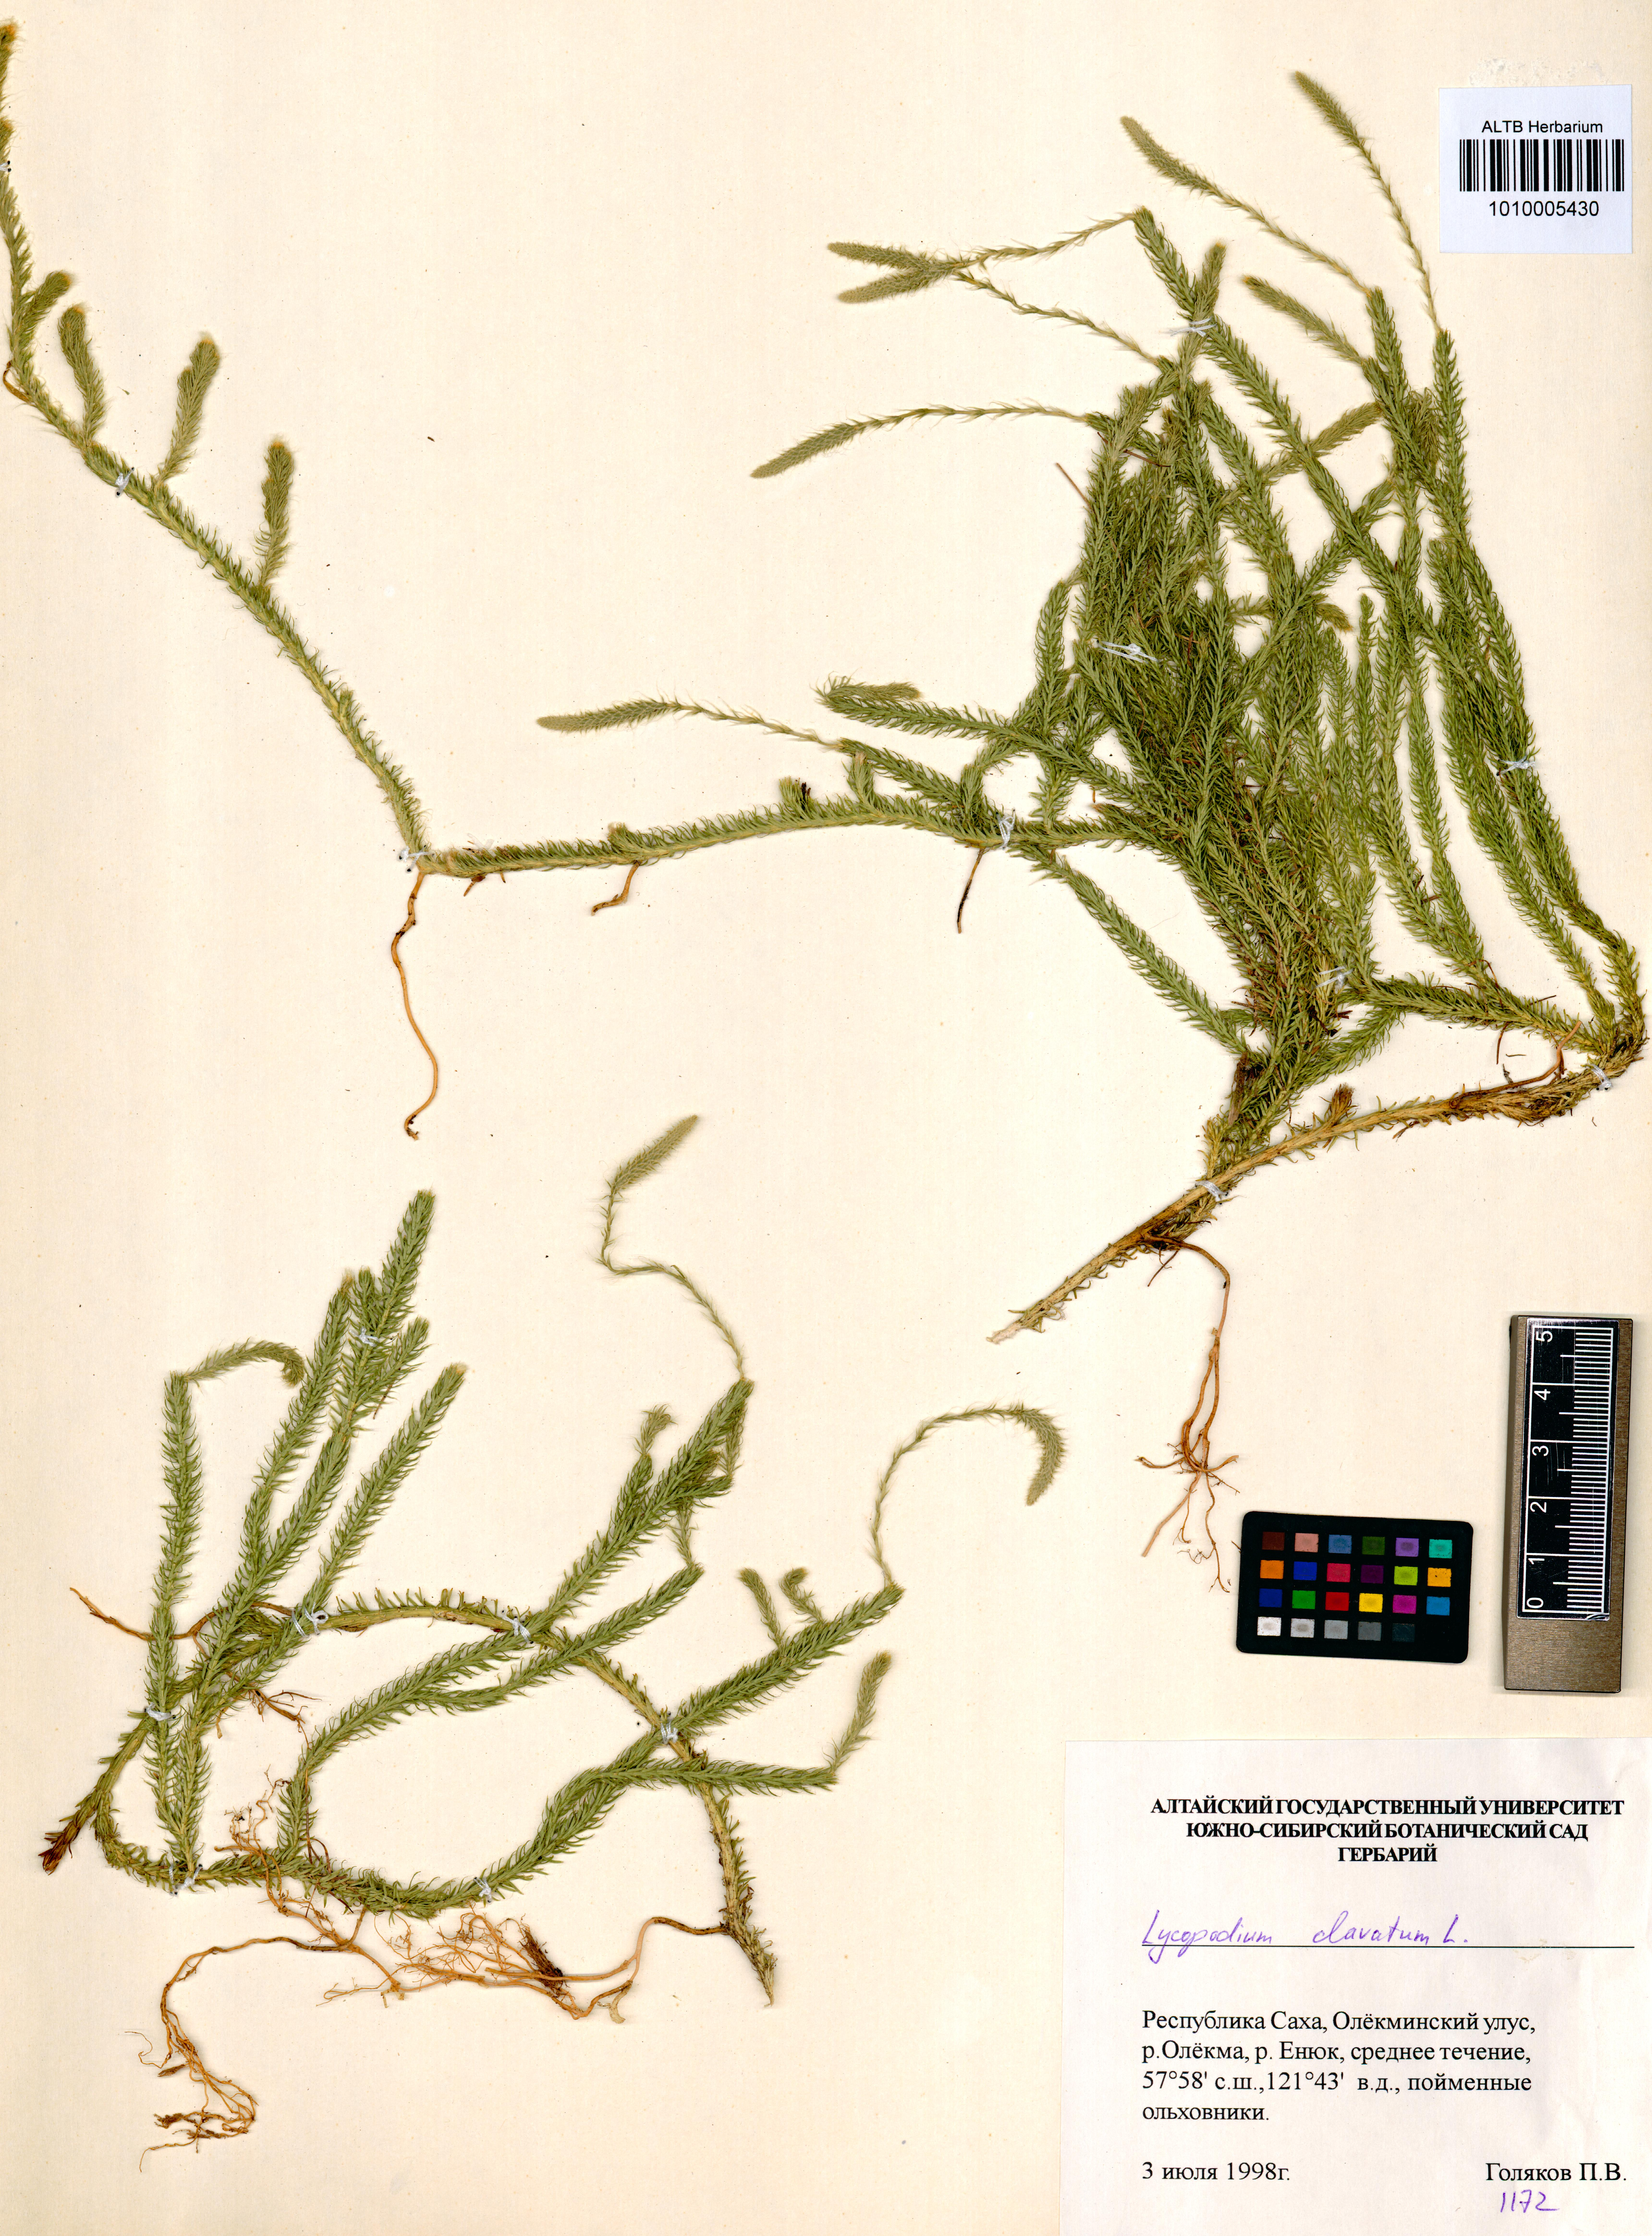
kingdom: Plantae
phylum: Tracheophyta
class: Lycopodiopsida
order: Lycopodiales
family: Lycopodiaceae
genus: Lycopodium
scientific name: Lycopodium clavatum
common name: Stag's-horn clubmoss
